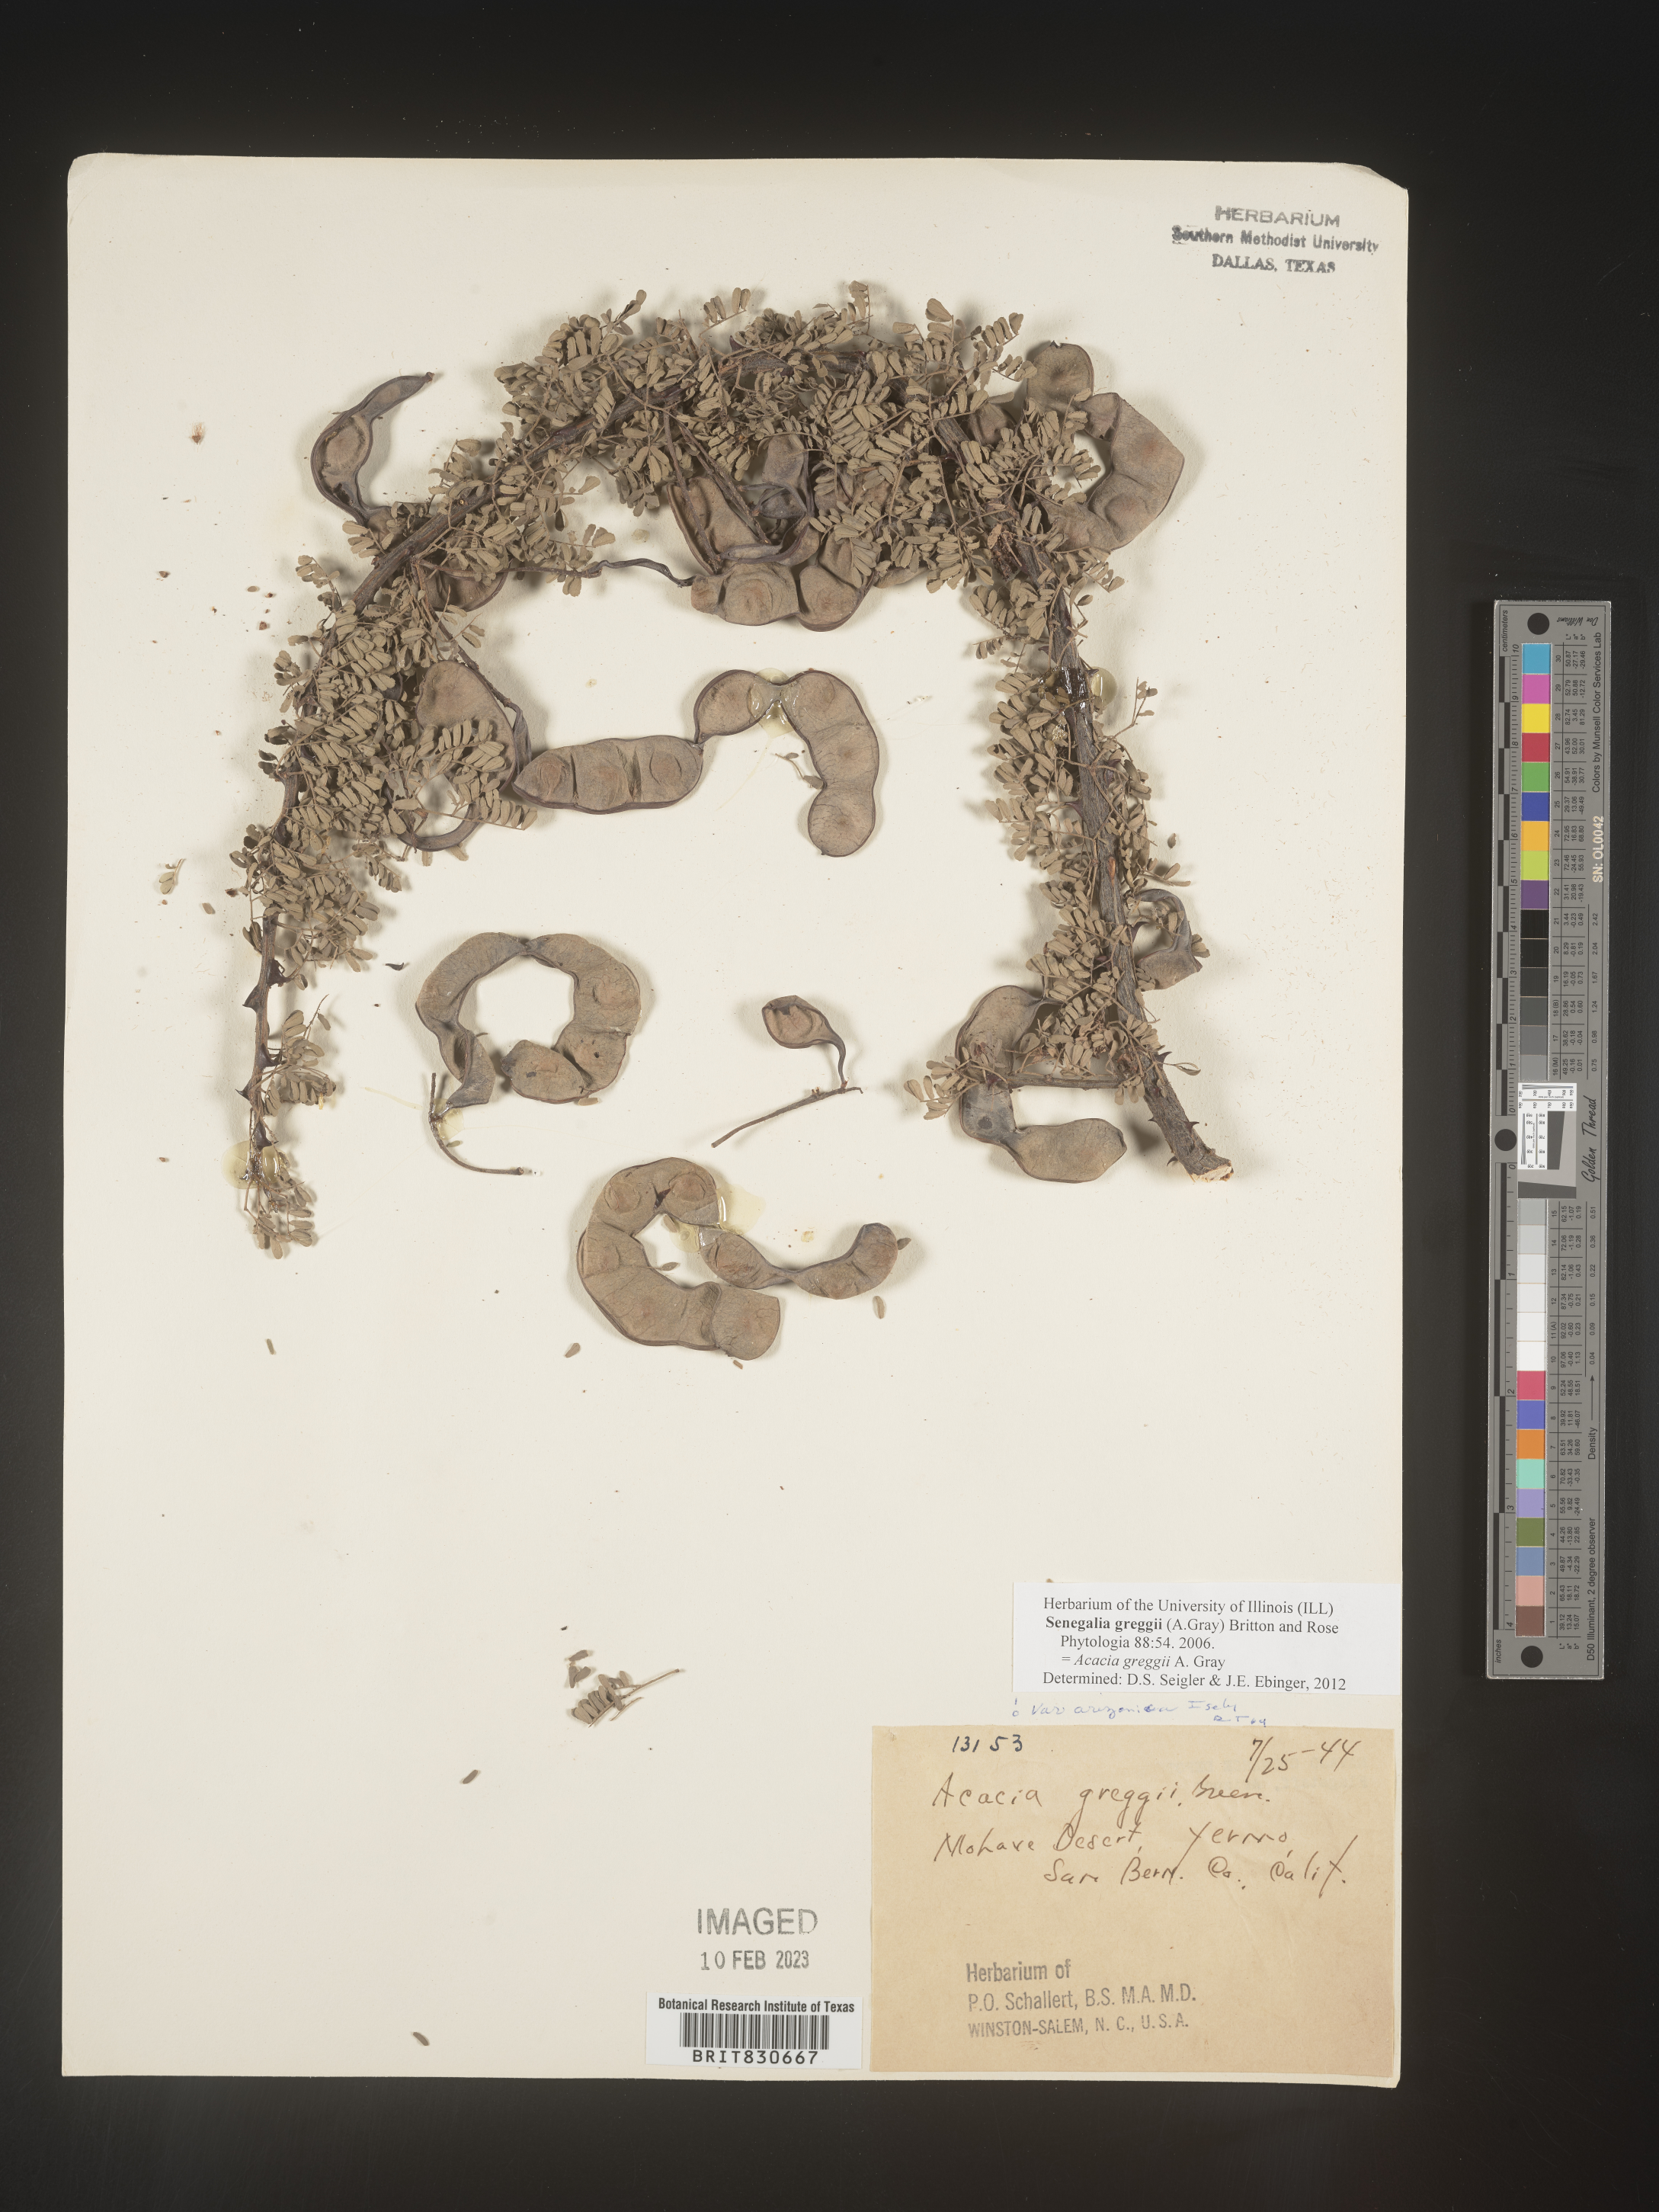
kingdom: Plantae
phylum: Tracheophyta
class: Magnoliopsida
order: Fabales
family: Fabaceae
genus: Senegalia
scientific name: Senegalia greggii
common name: Texas-mimosa
